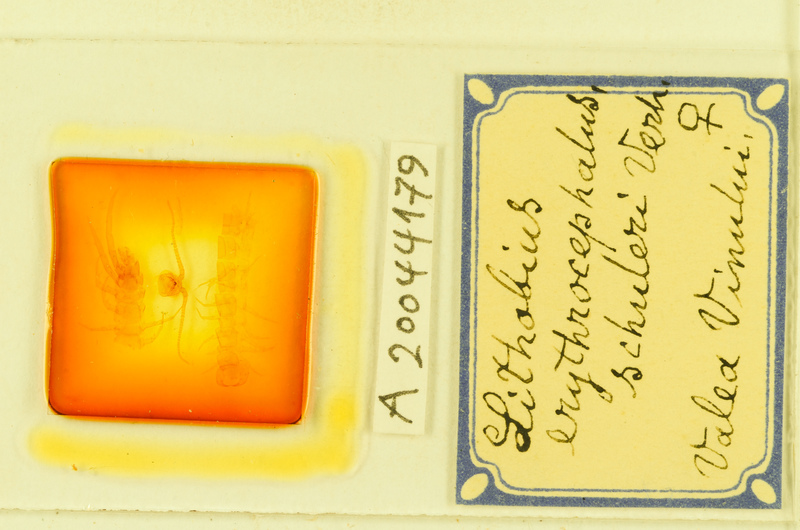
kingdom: Animalia
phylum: Arthropoda
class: Chilopoda
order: Lithobiomorpha
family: Lithobiidae
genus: Lithobius
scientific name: Lithobius erythrocephalus
